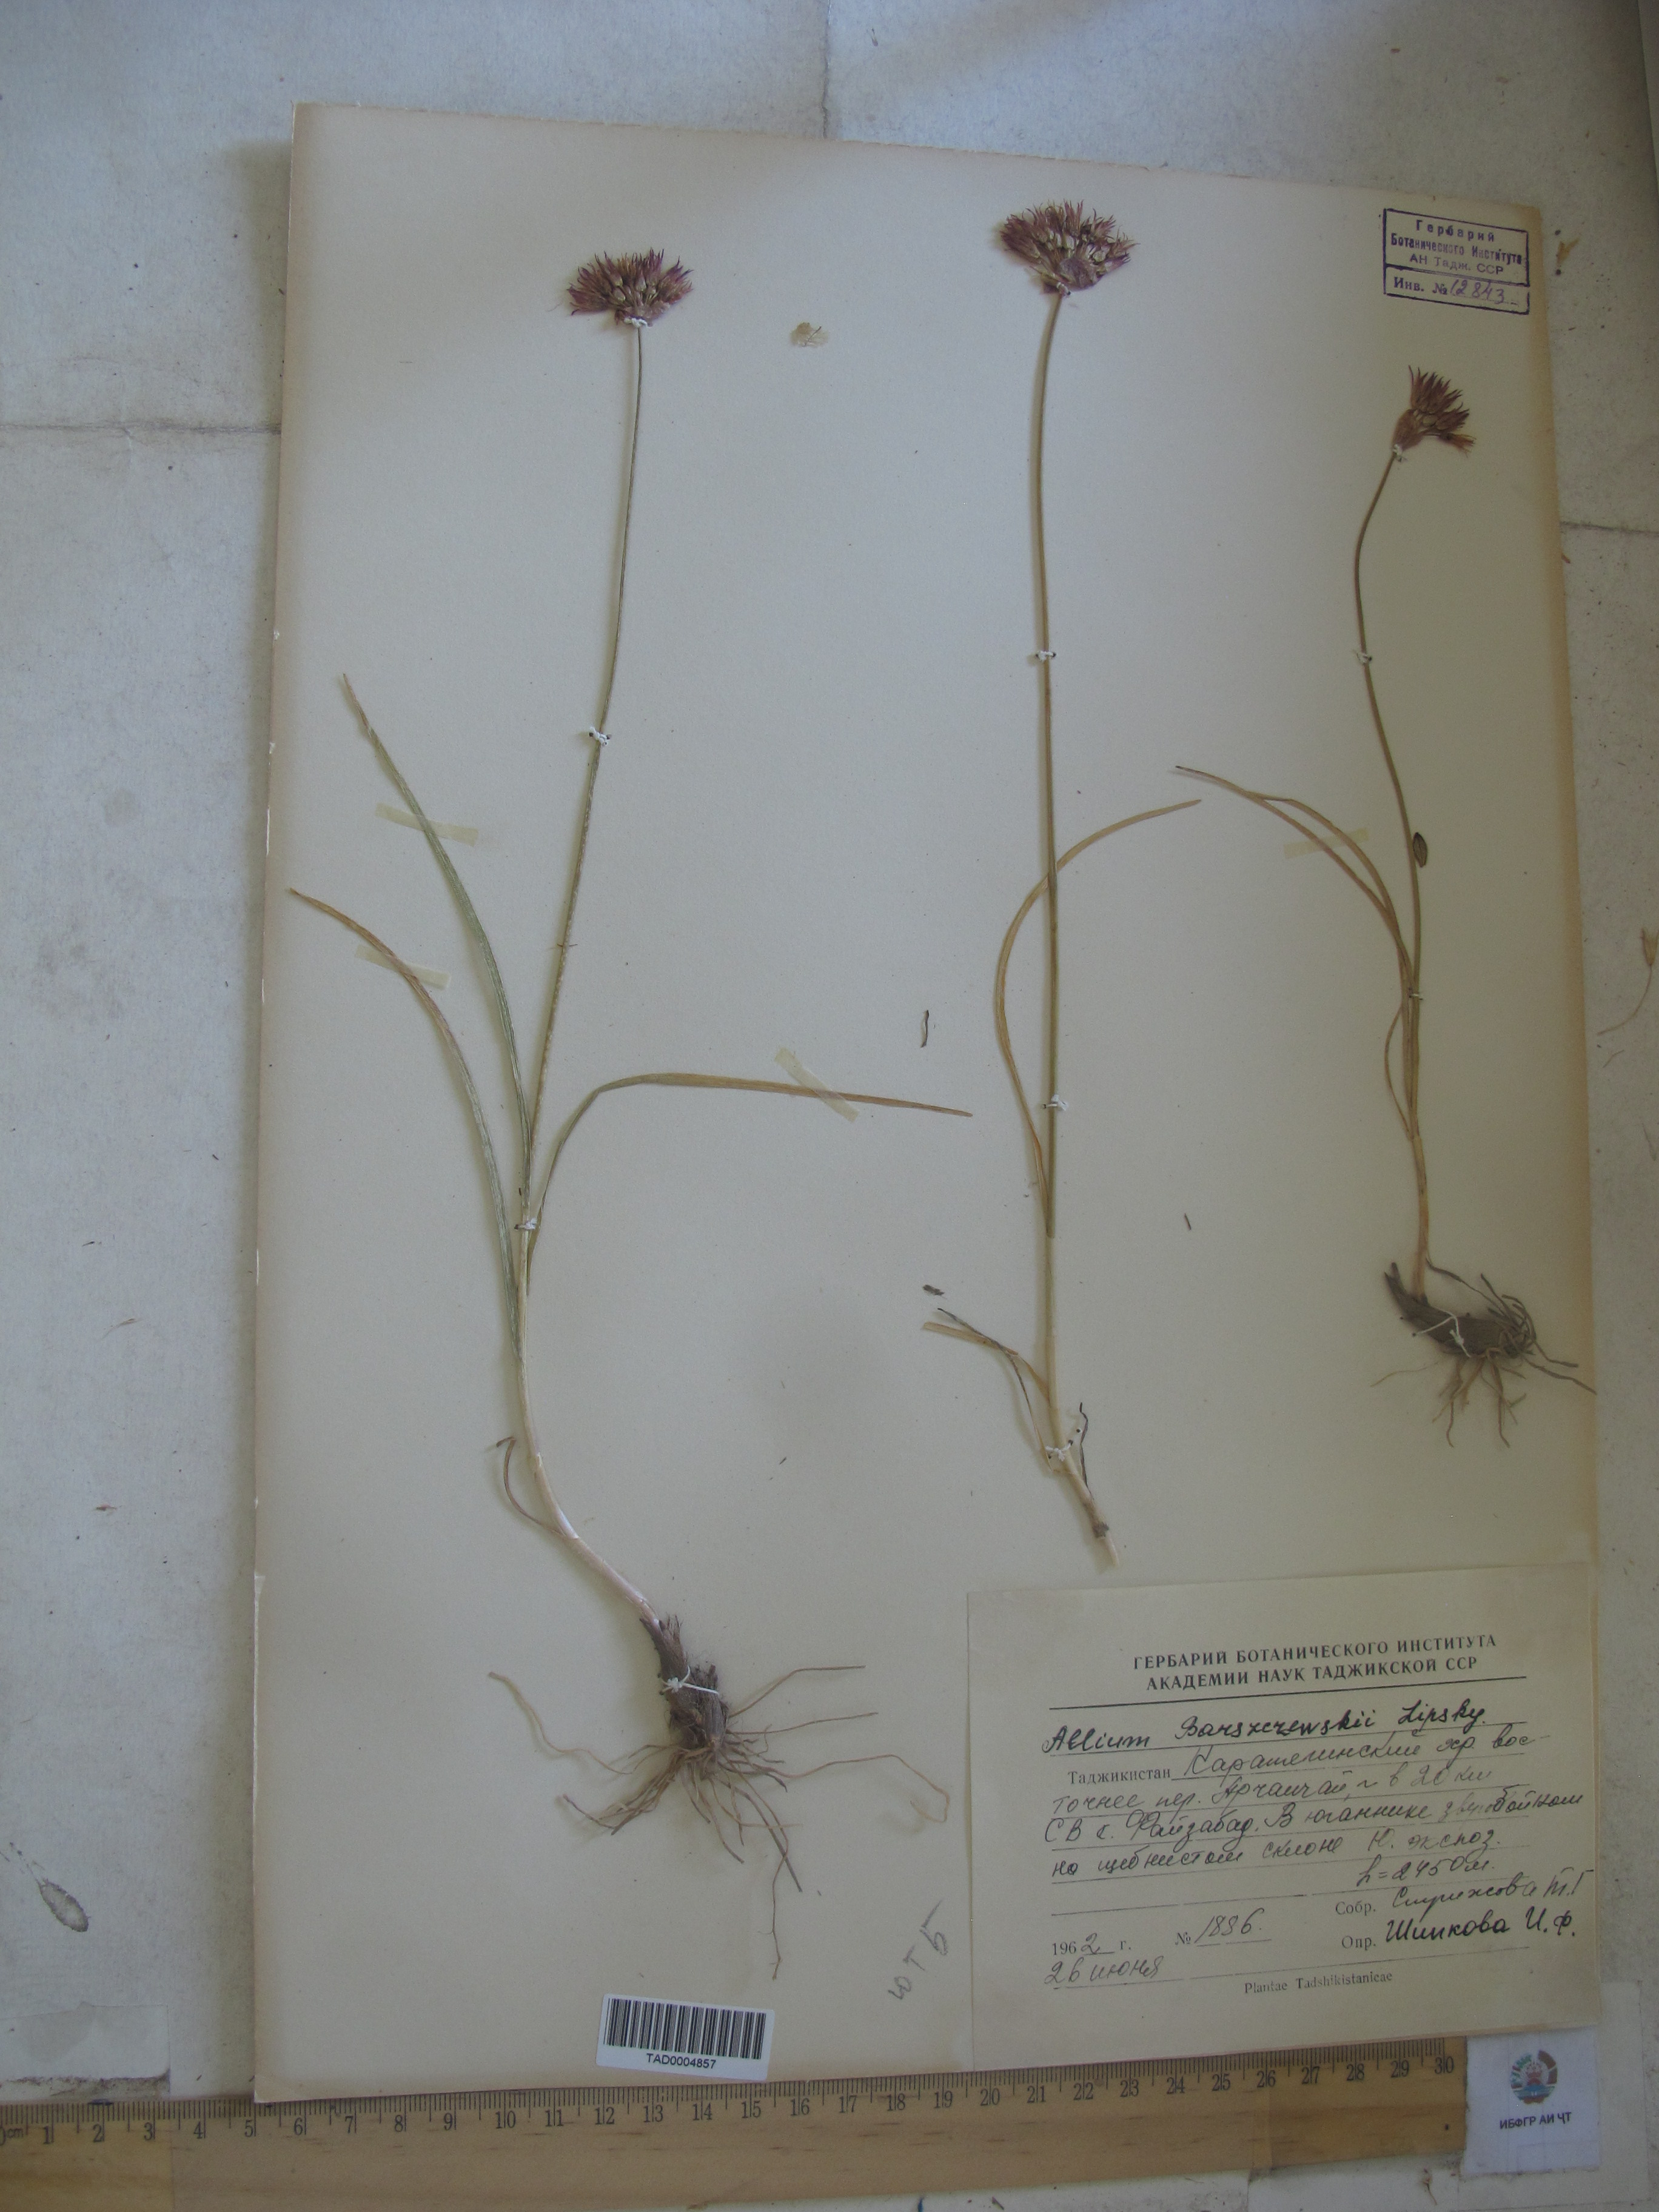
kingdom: Plantae
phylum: Tracheophyta
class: Liliopsida
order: Asparagales
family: Amaryllidaceae
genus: Allium
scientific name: Allium barsczewskii
